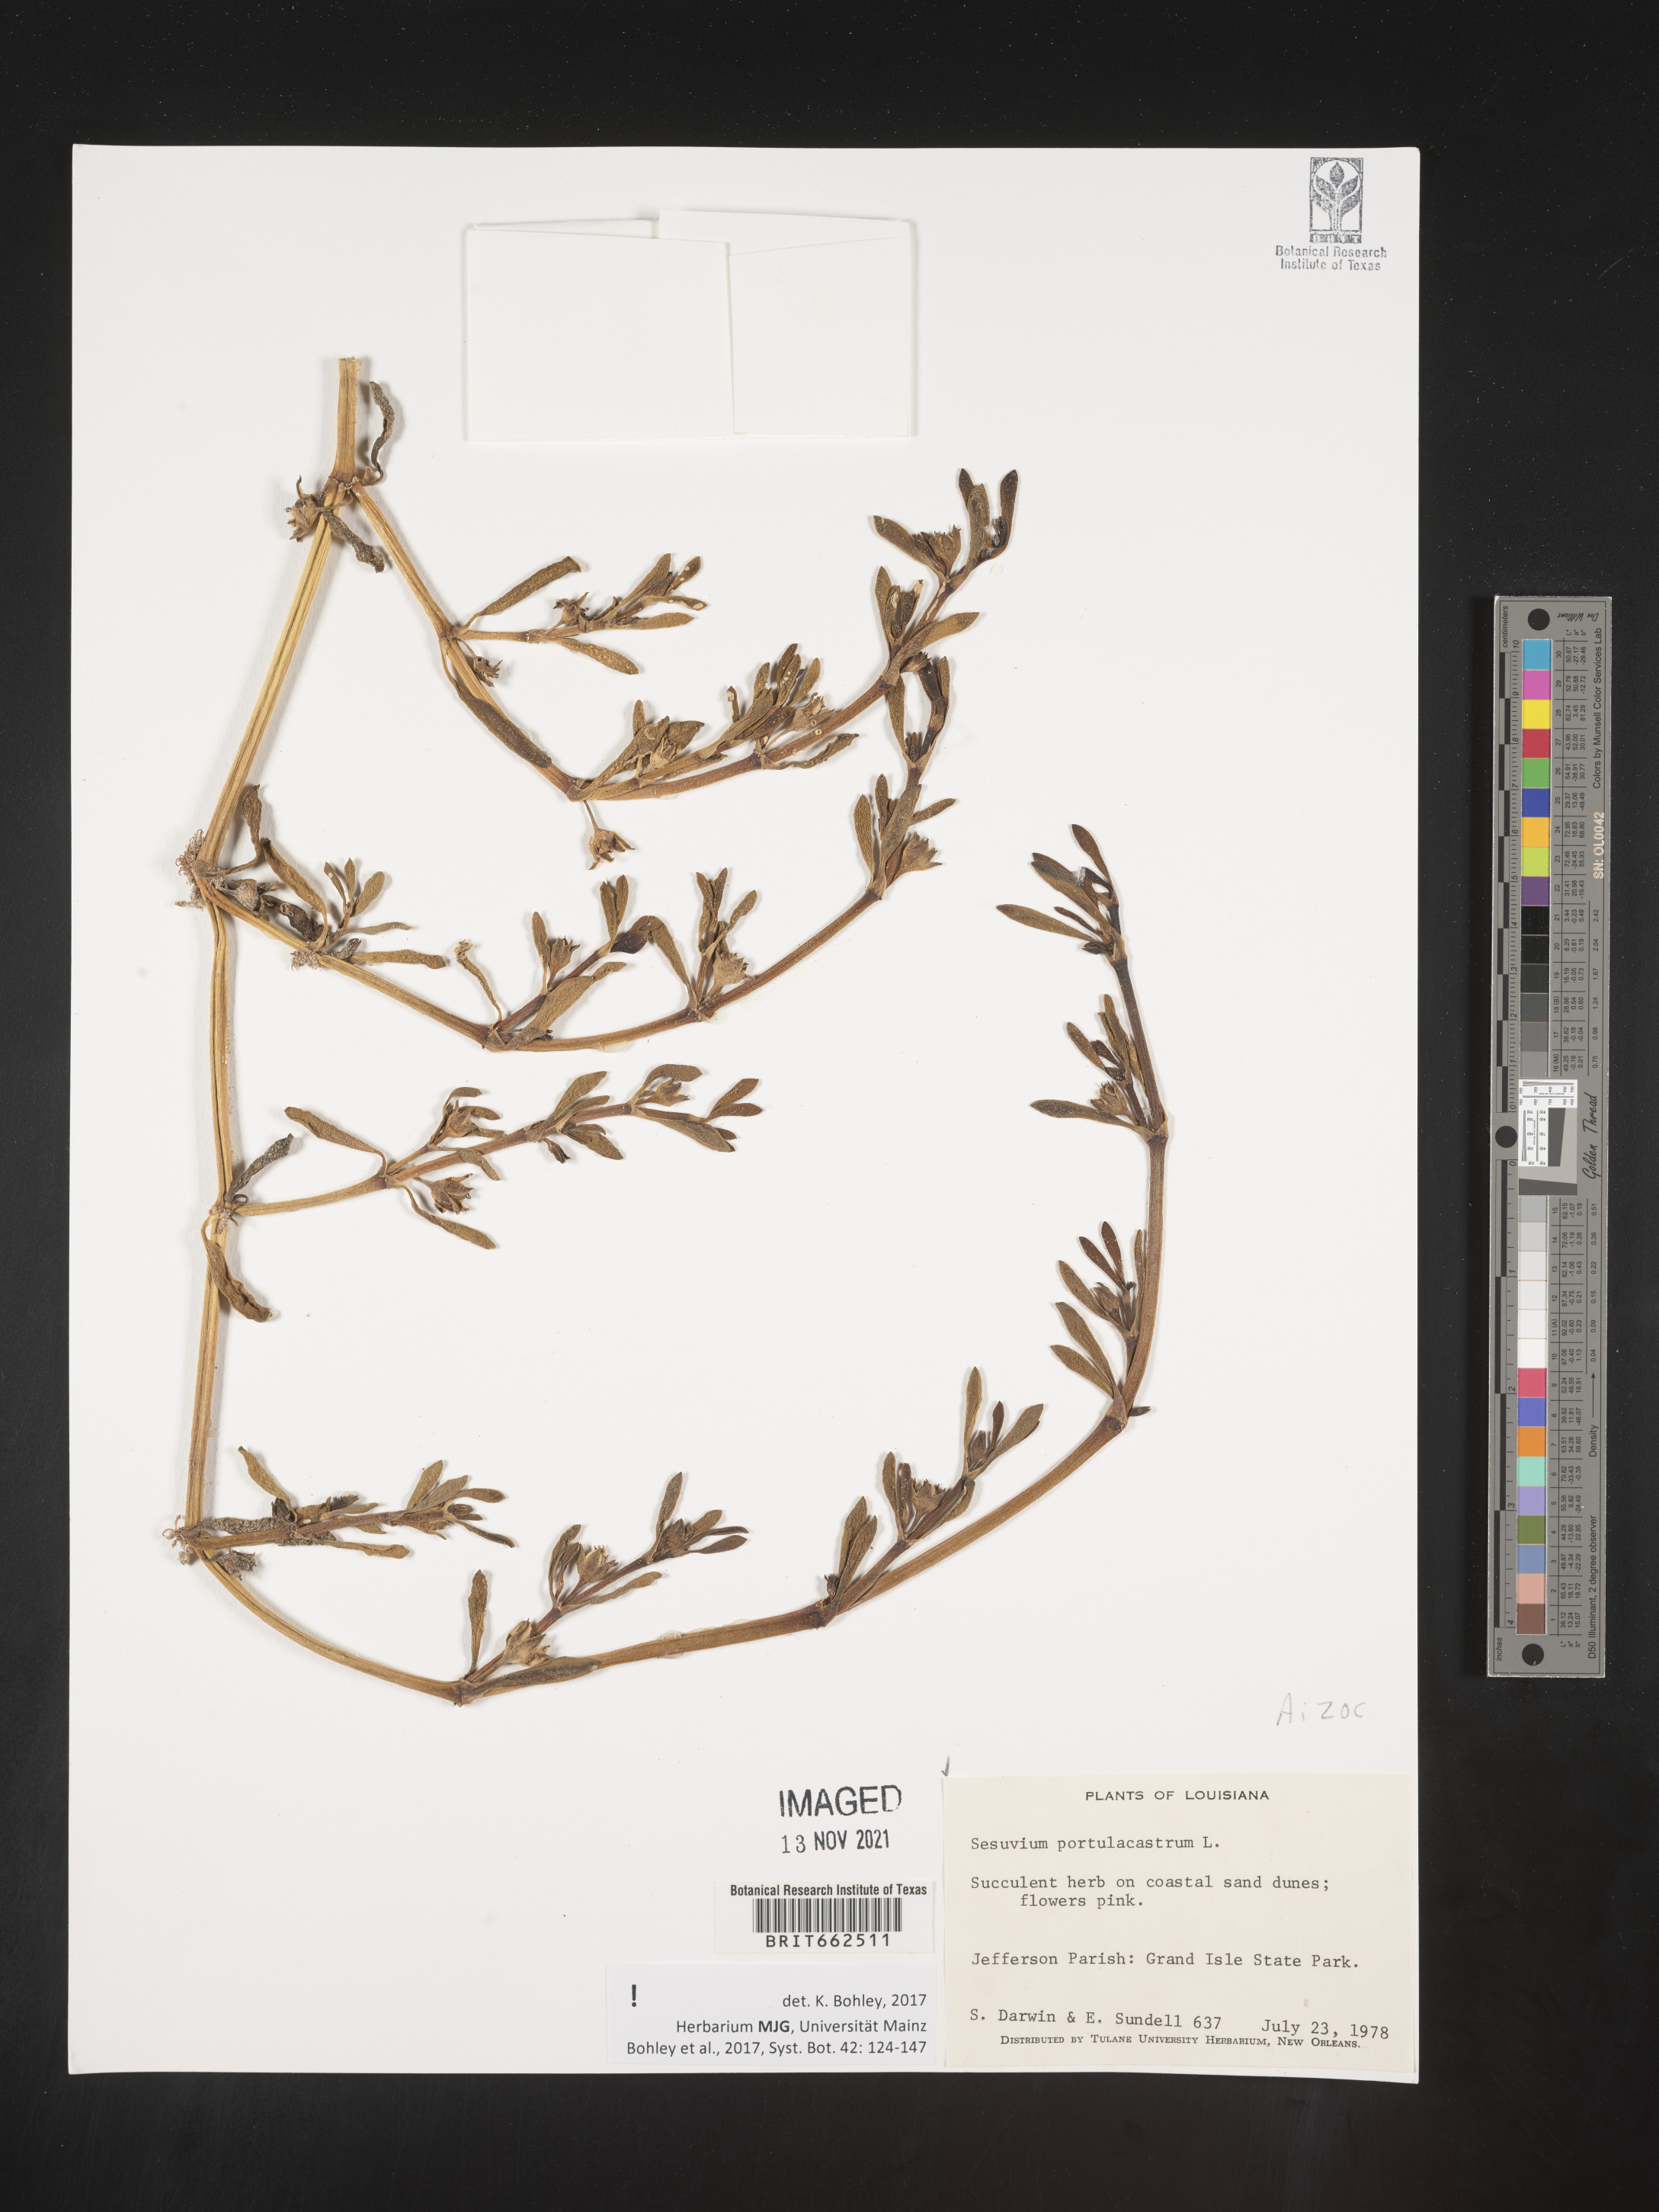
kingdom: Plantae
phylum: Tracheophyta
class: Magnoliopsida
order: Caryophyllales
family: Aizoaceae
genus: Sesuvium
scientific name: Sesuvium portulacastrum
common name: Sea-purslane
